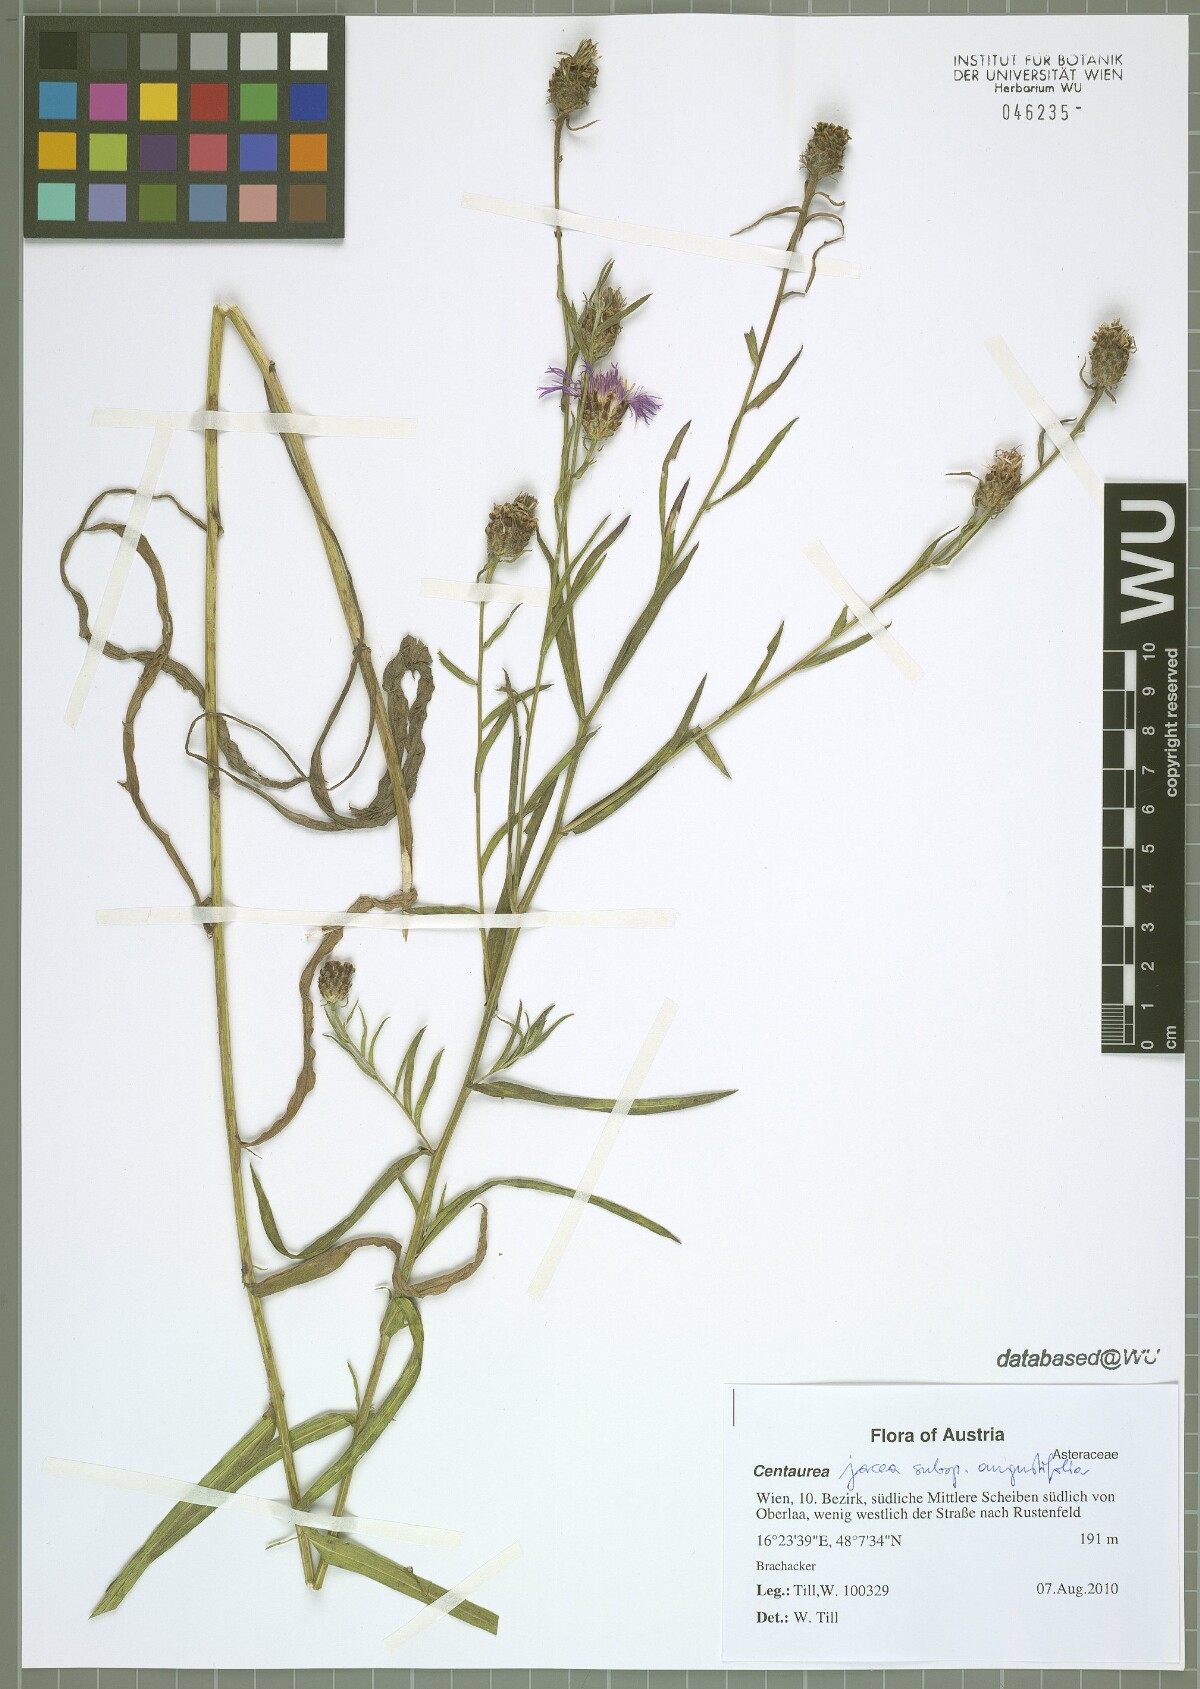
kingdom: Plantae
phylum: Tracheophyta
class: Magnoliopsida
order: Asterales
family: Asteraceae
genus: Centaurea
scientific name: Centaurea pannonica
